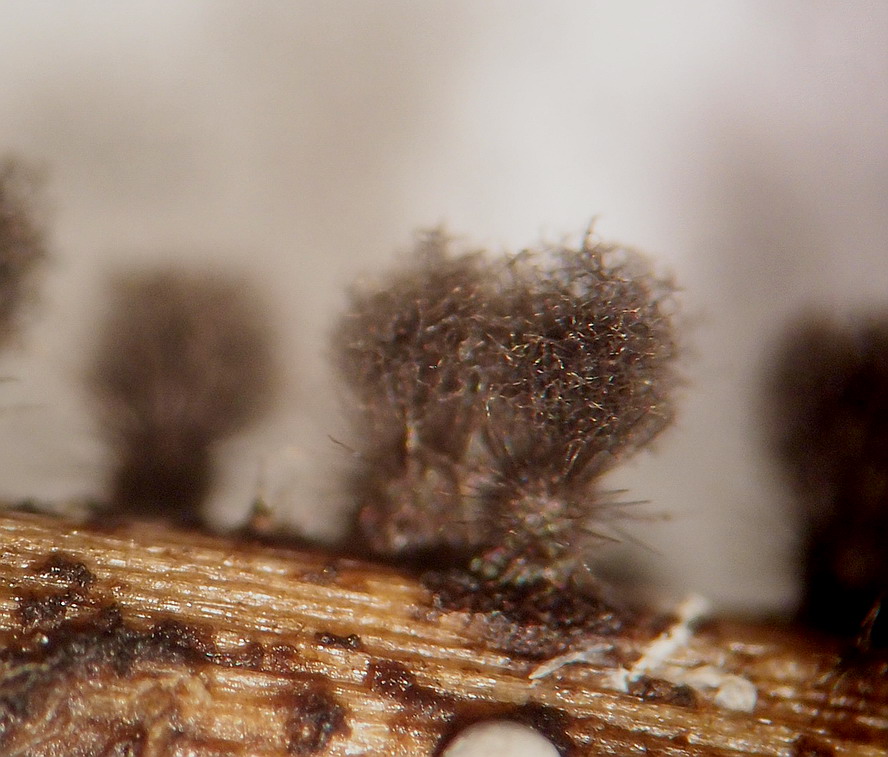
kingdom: Fungi
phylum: Ascomycota
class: Sordariomycetes
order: Sordariales
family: Chaetomiaceae
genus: Chaetomium
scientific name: Chaetomium elatum
